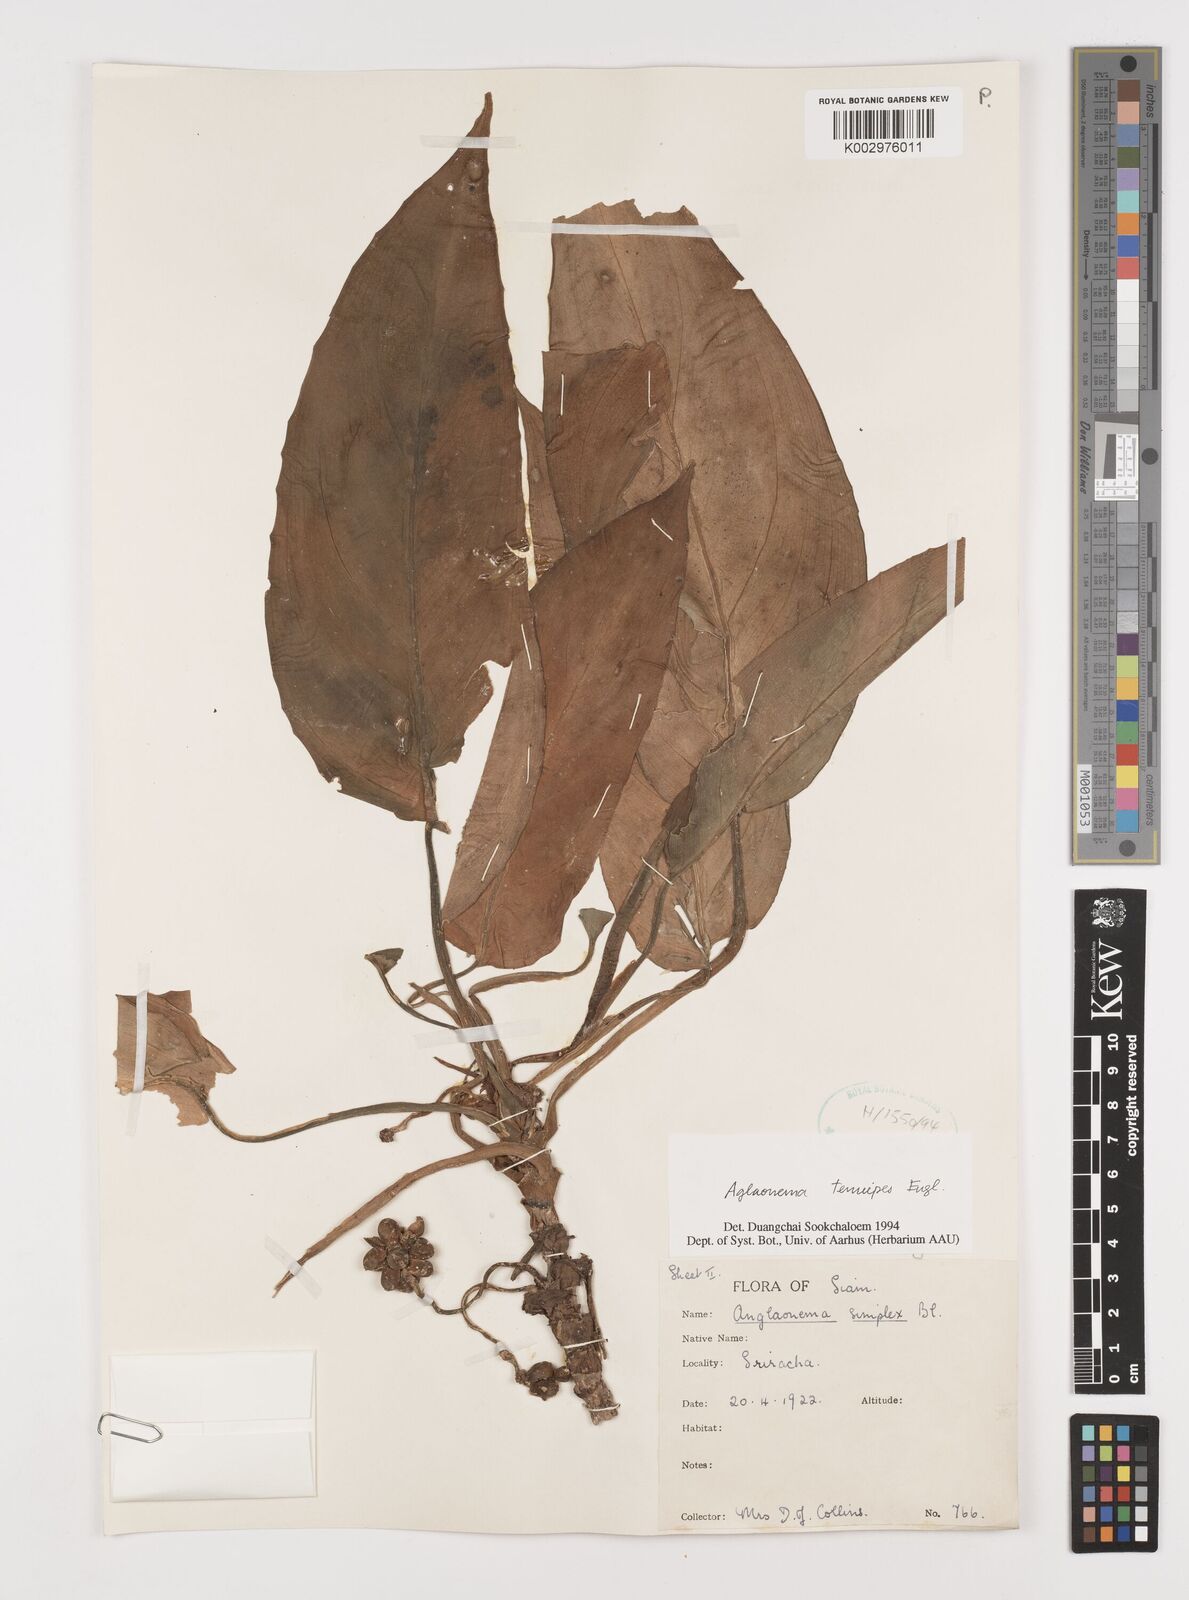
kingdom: Plantae
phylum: Tracheophyta
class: Liliopsida
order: Alismatales
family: Araceae
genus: Aglaonema
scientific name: Aglaonema simplex
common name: Malayan-sword
